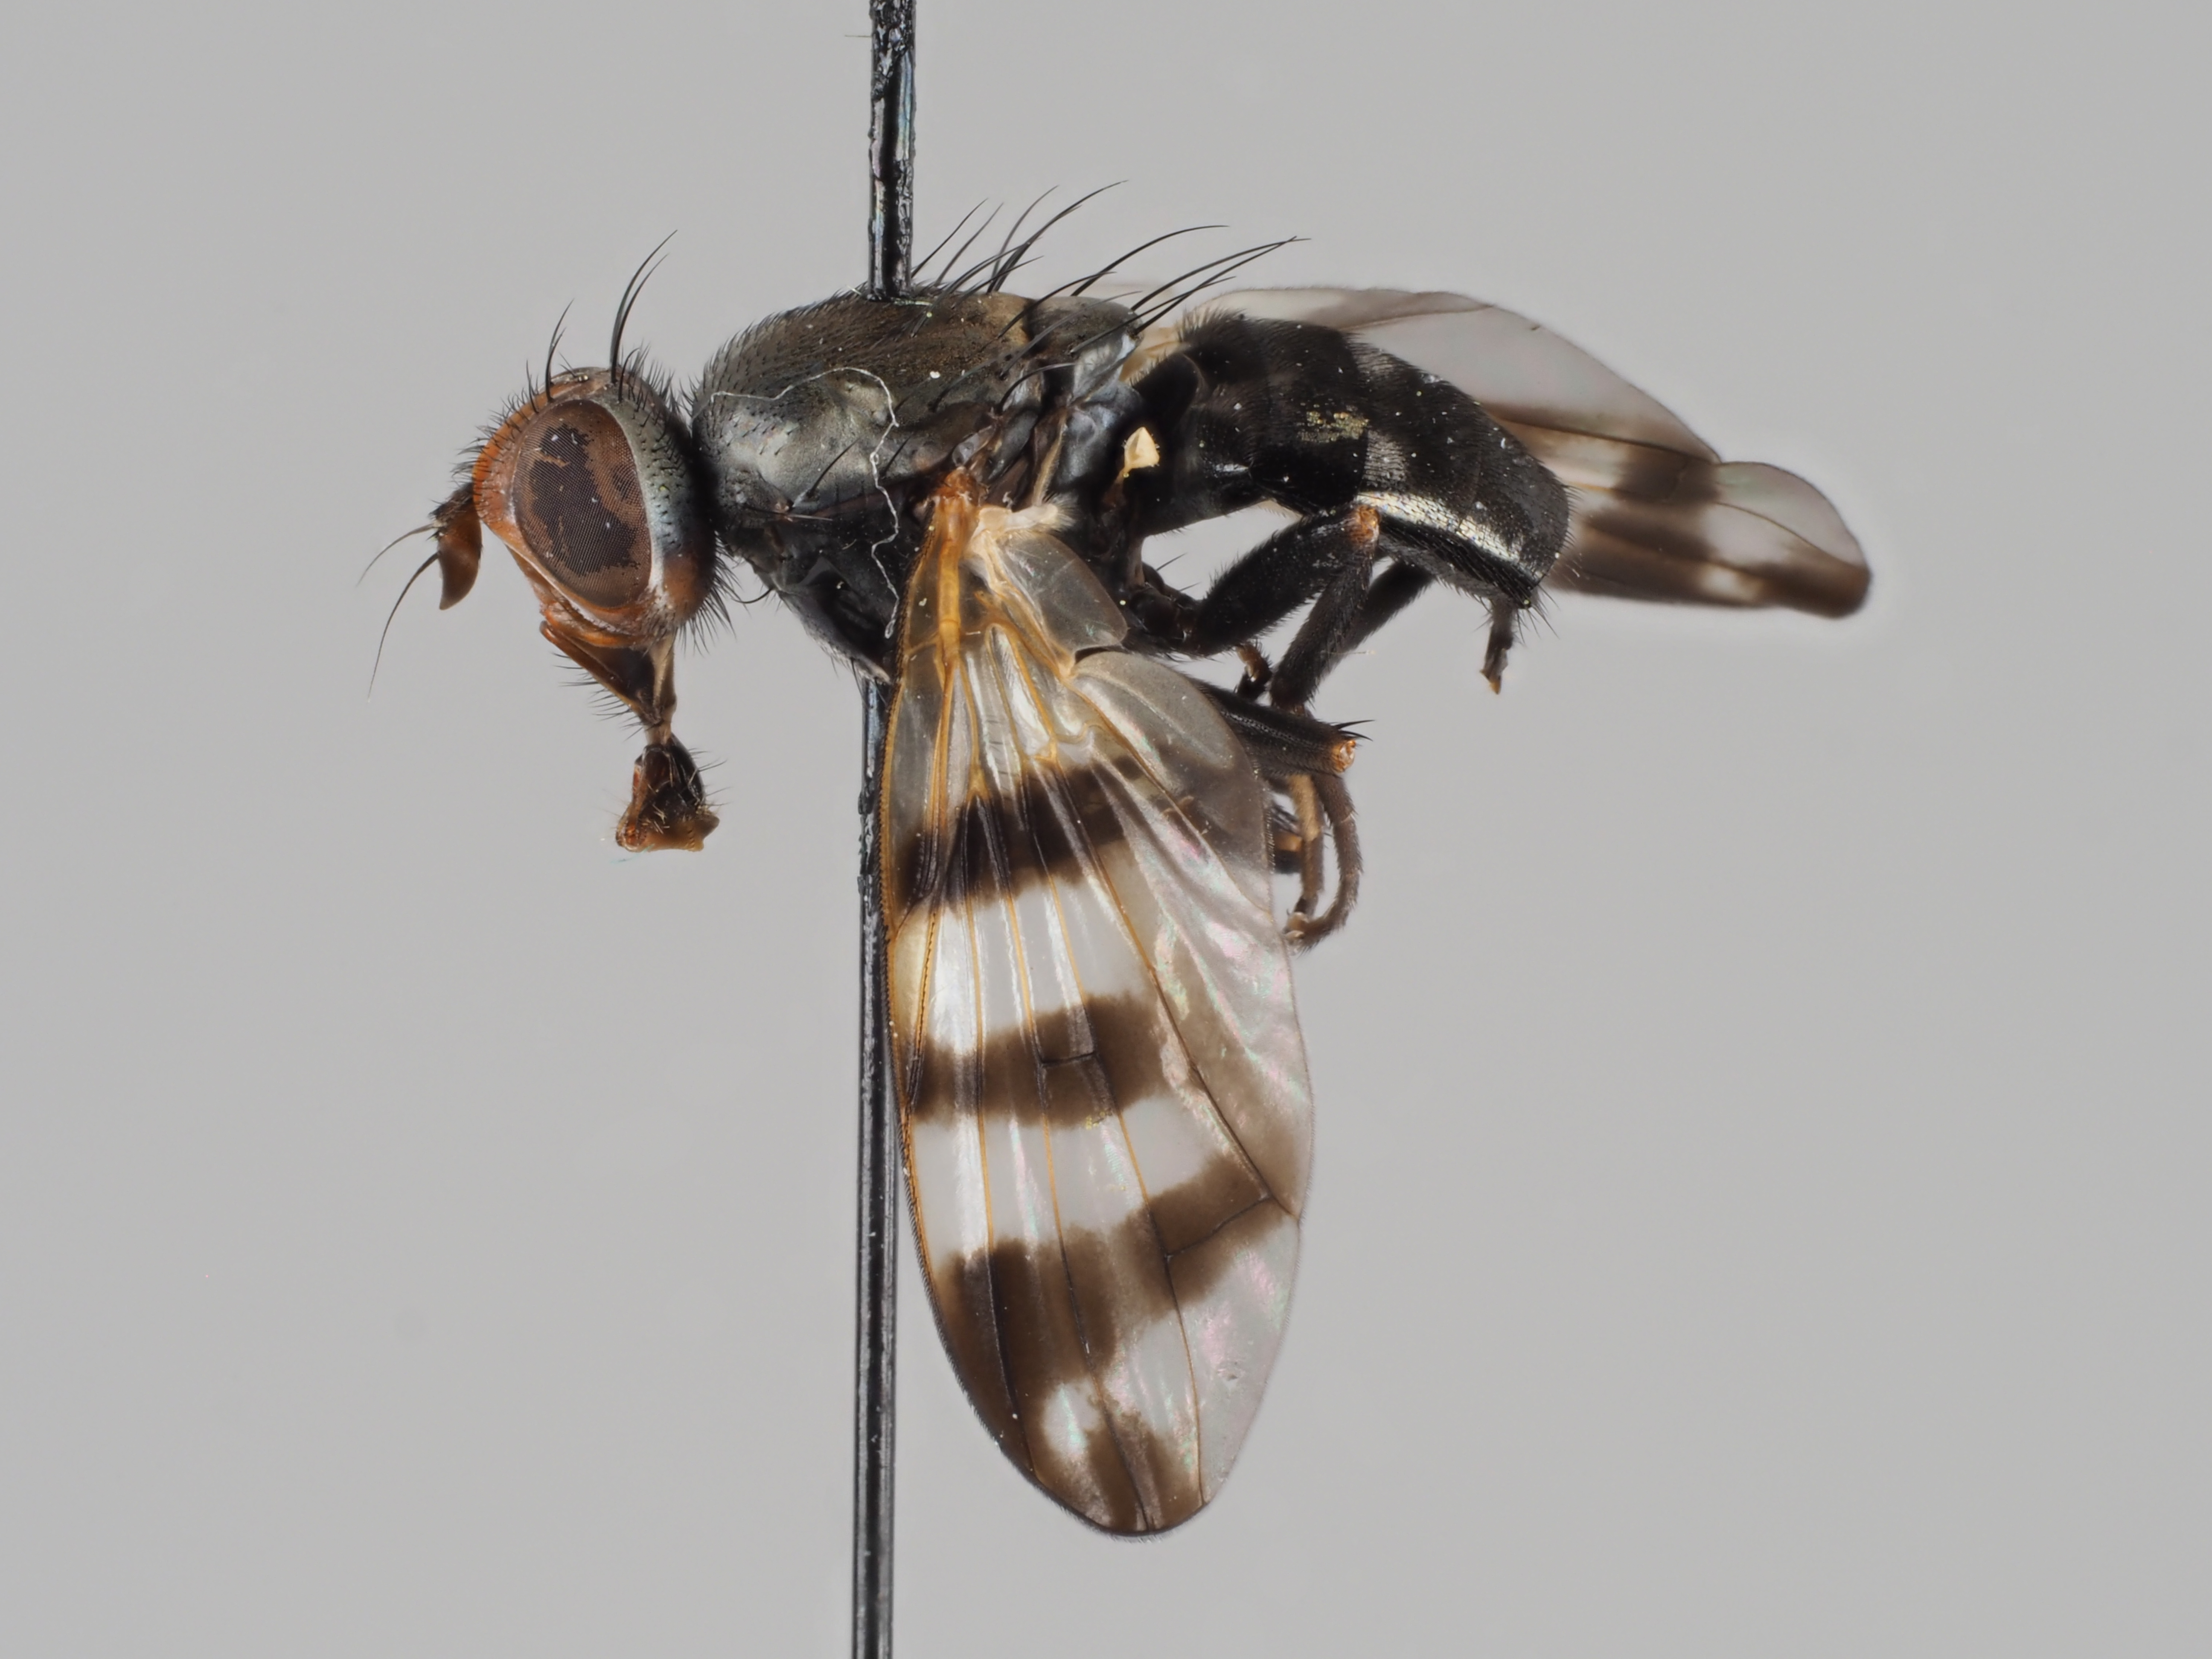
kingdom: Animalia
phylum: Arthropoda
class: Insecta
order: Diptera
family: Ulidiidae
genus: Ceroxys
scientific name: Ceroxys urticae
